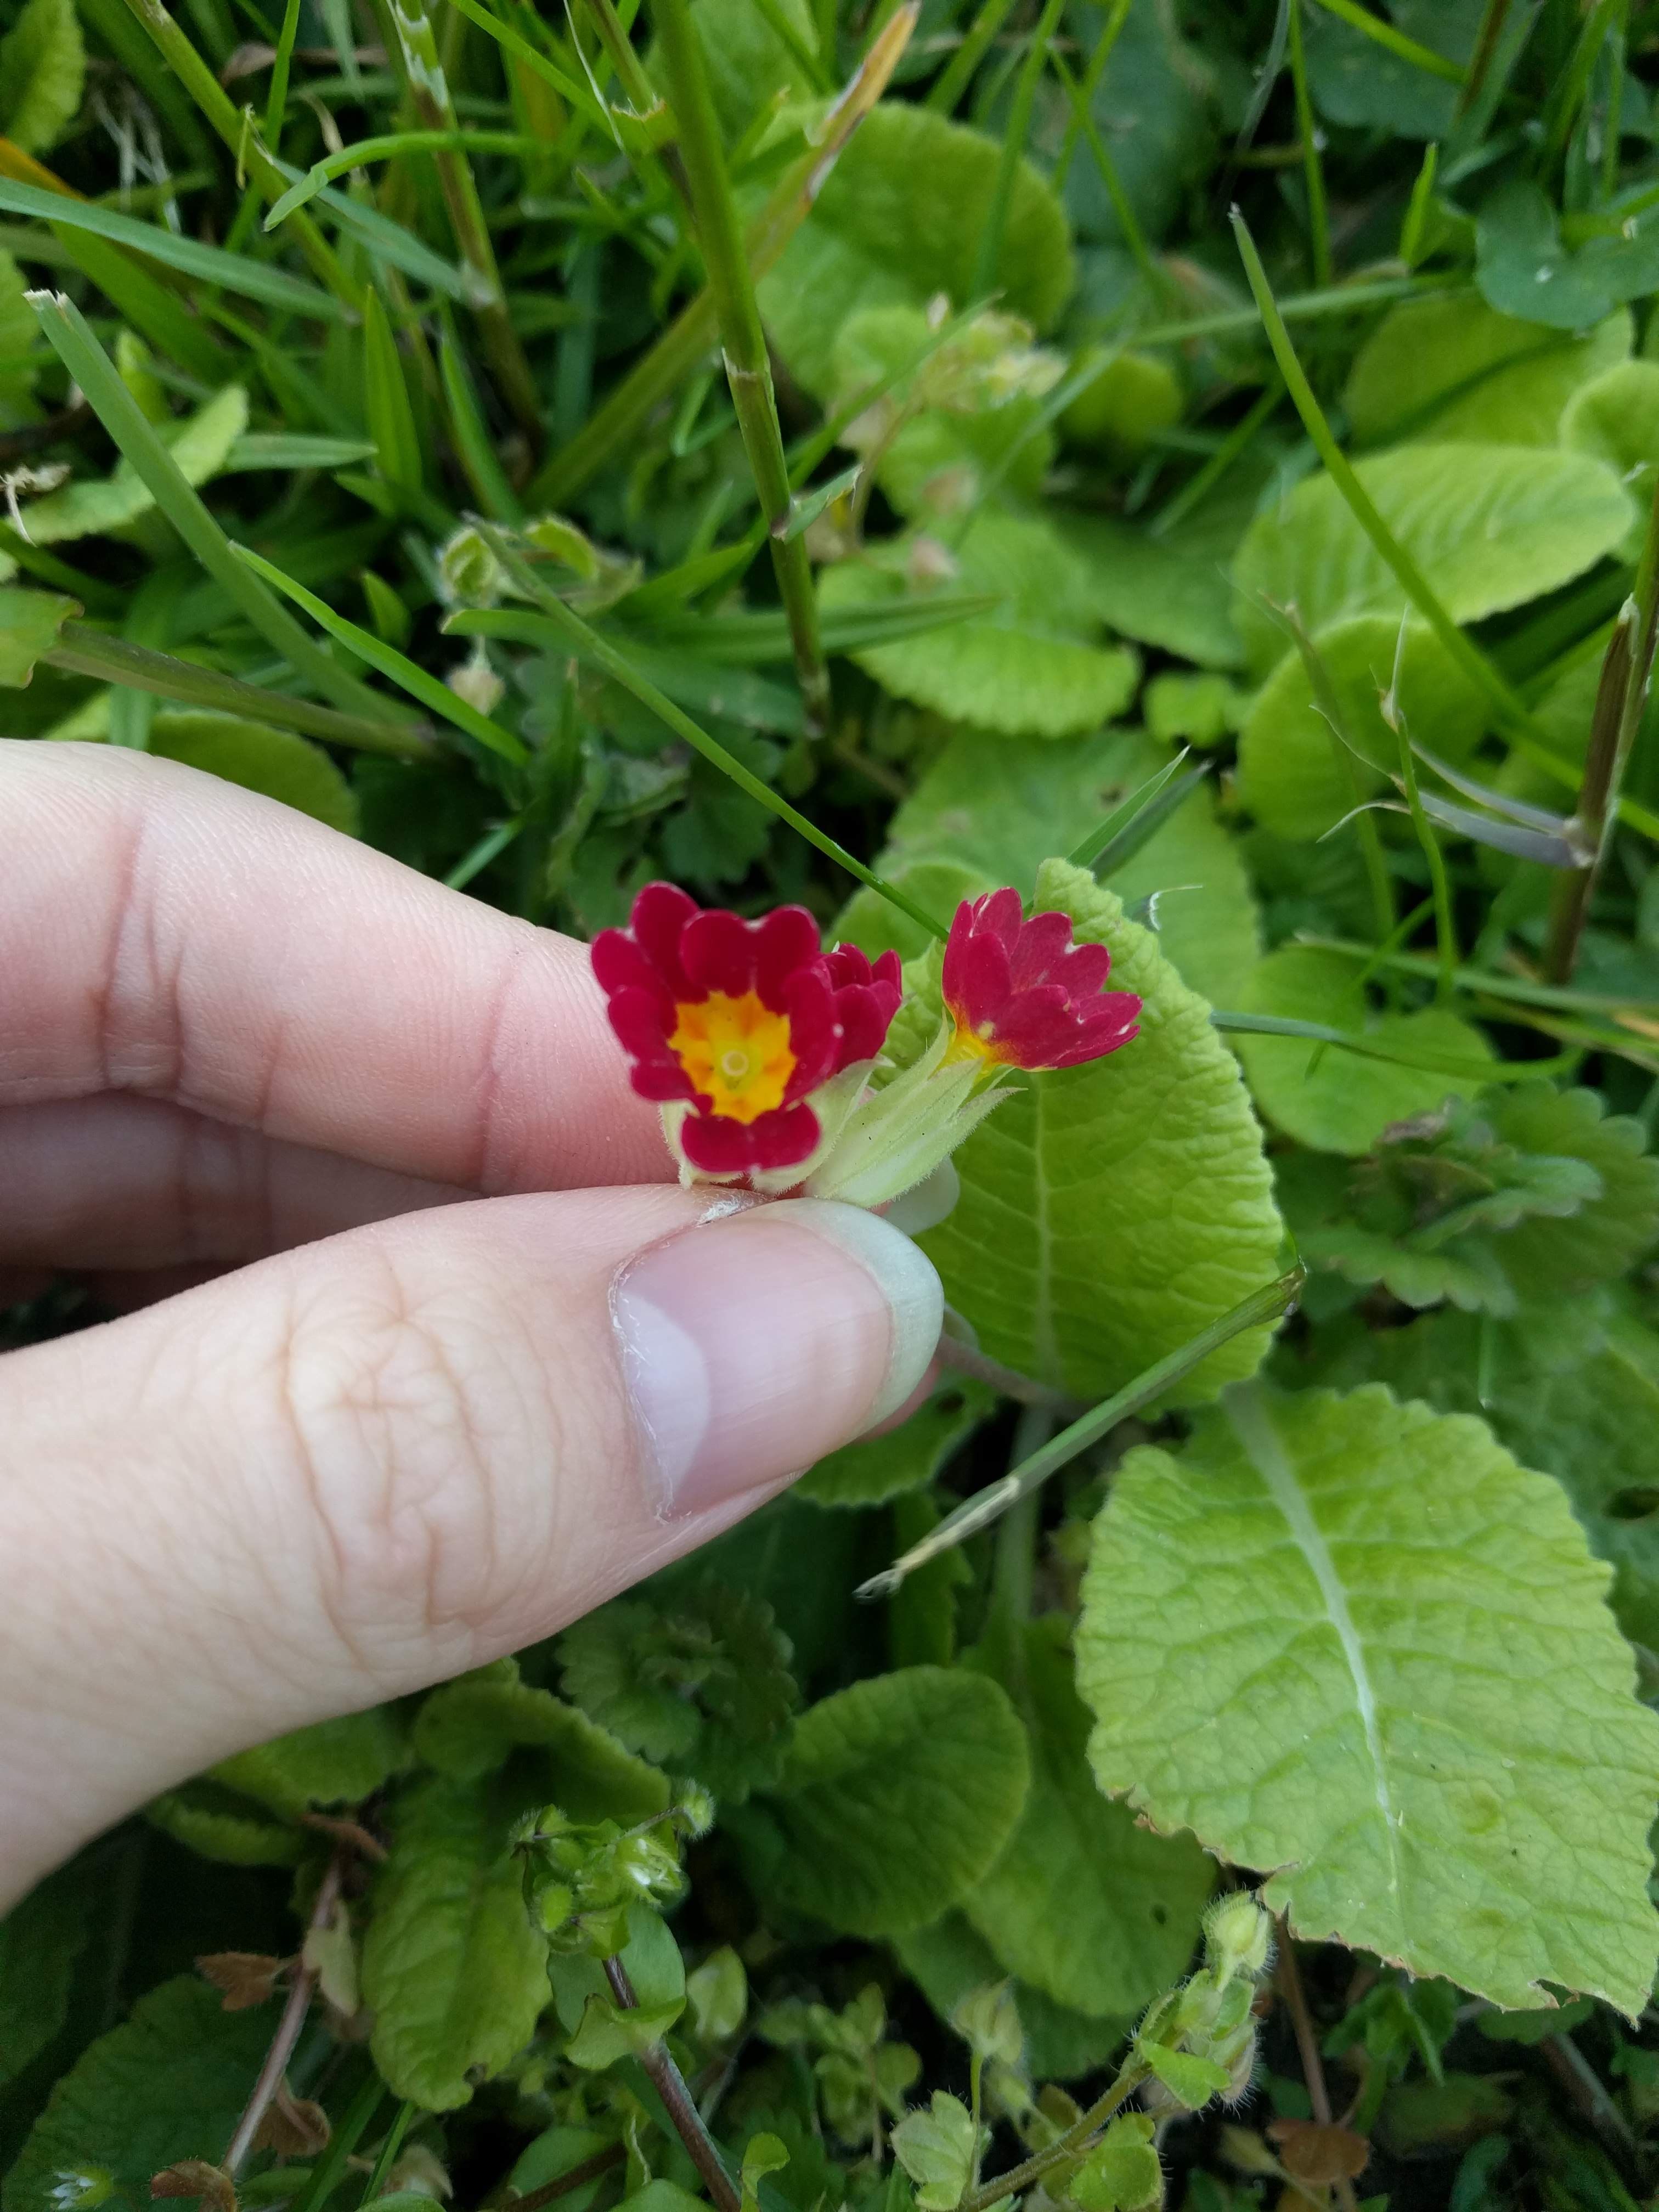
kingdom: Plantae
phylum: Tracheophyta
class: Magnoliopsida
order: Ericales
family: Primulaceae
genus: Primula
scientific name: Primula vulgaris
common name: Primrose
